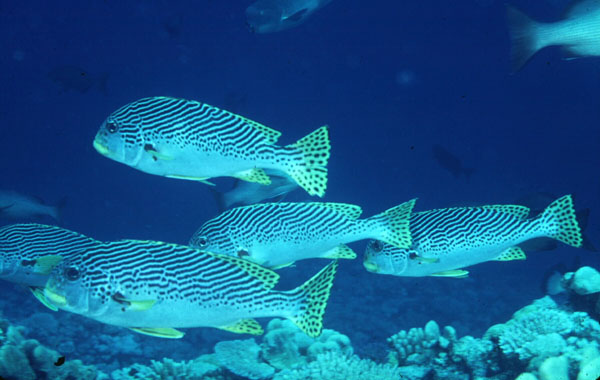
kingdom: Animalia
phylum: Chordata
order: Perciformes
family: Haemulidae
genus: Plectorhinchus
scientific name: Plectorhinchus lineatus
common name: Goldman's sweetlips
